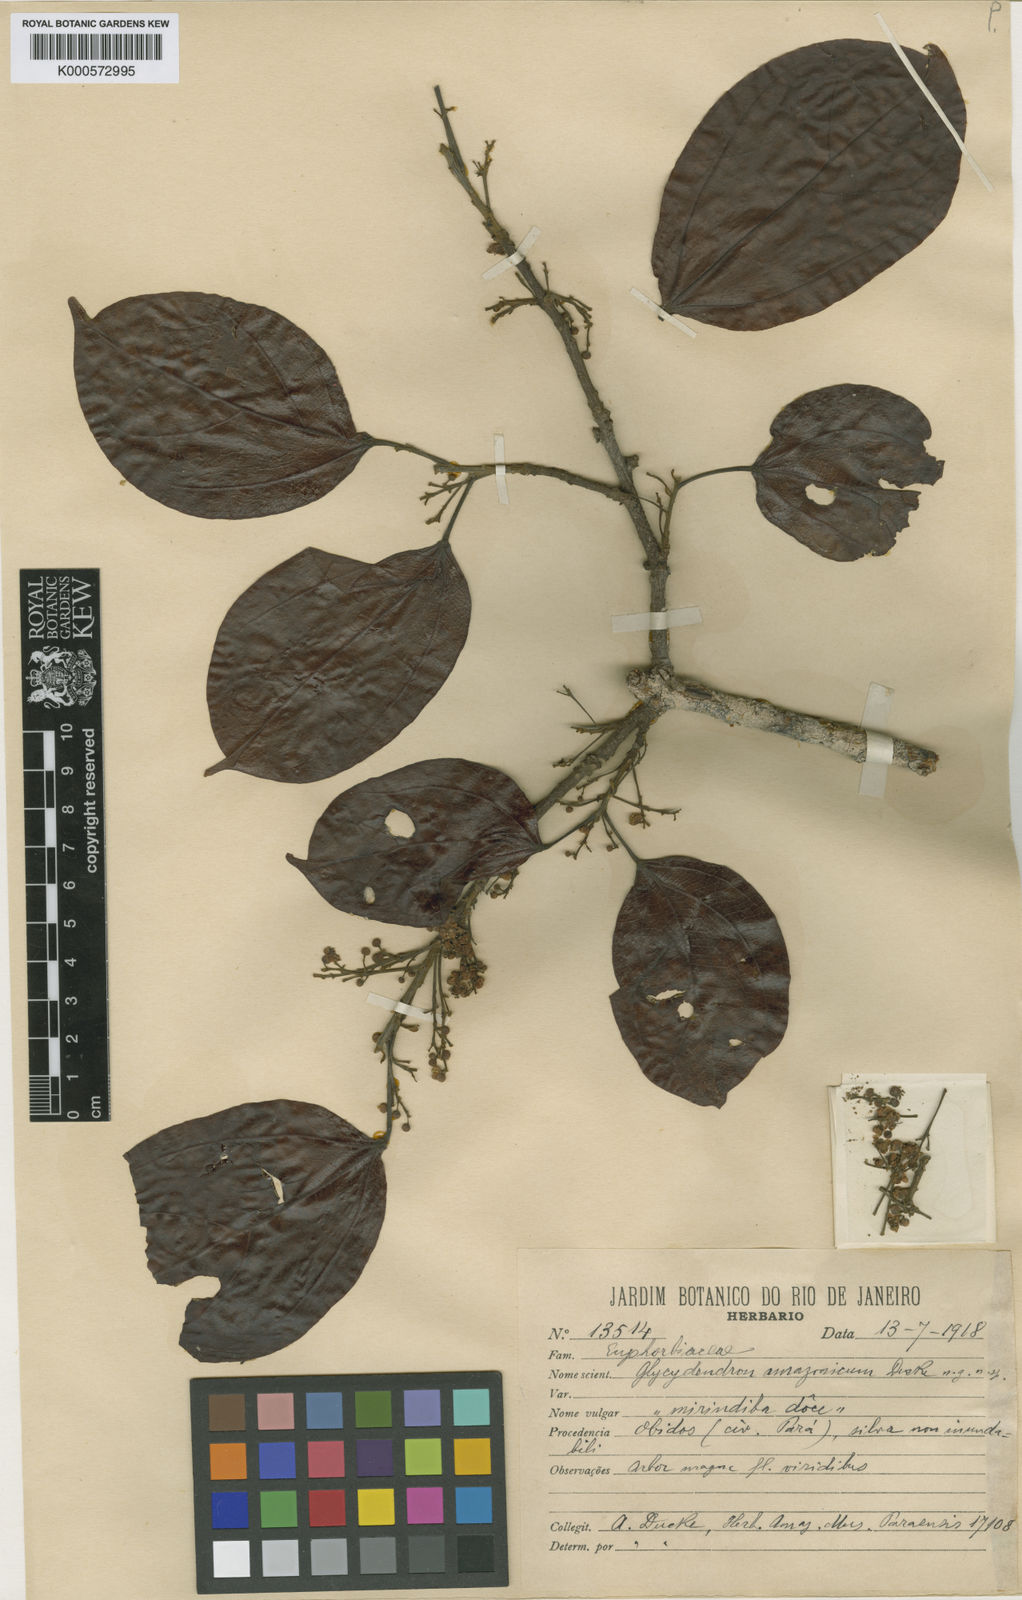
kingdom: Plantae
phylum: Tracheophyta
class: Magnoliopsida
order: Malpighiales
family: Euphorbiaceae
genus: Glycydendron
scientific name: Glycydendron amazonicum
